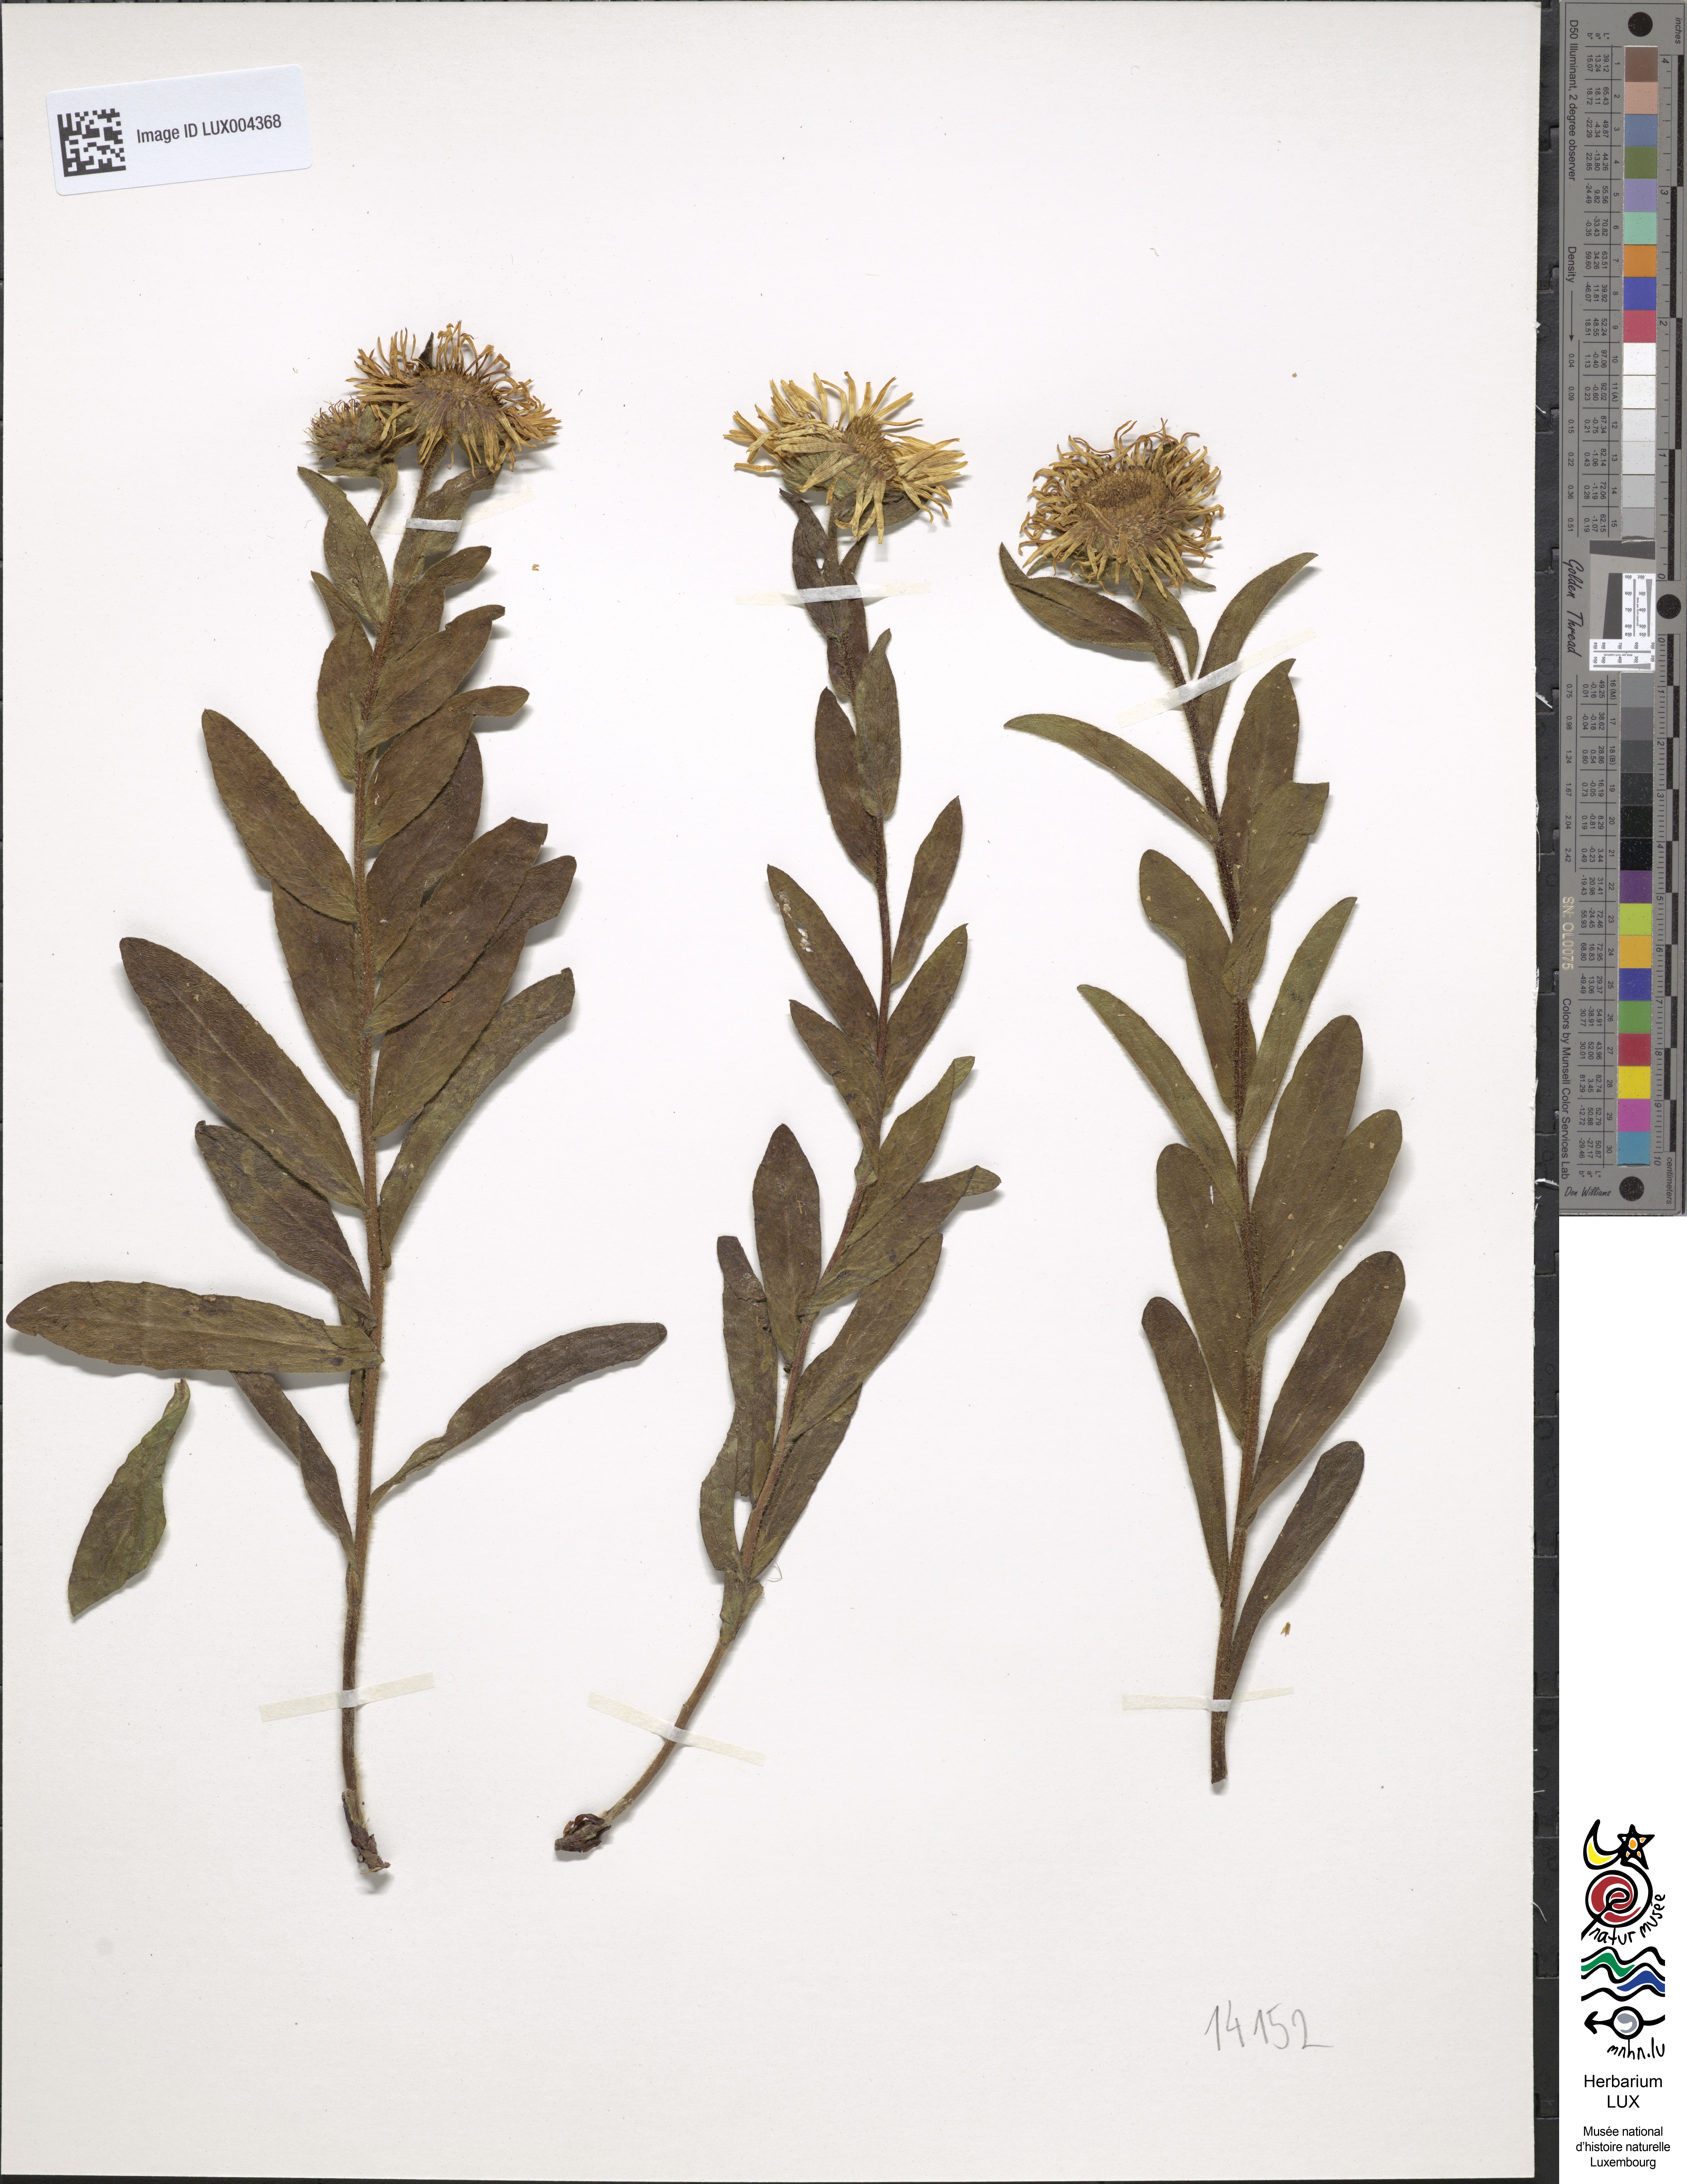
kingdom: Plantae
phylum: Tracheophyta
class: Magnoliopsida
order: Asterales
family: Asteraceae
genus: Pentanema
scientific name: Pentanema hirtum
